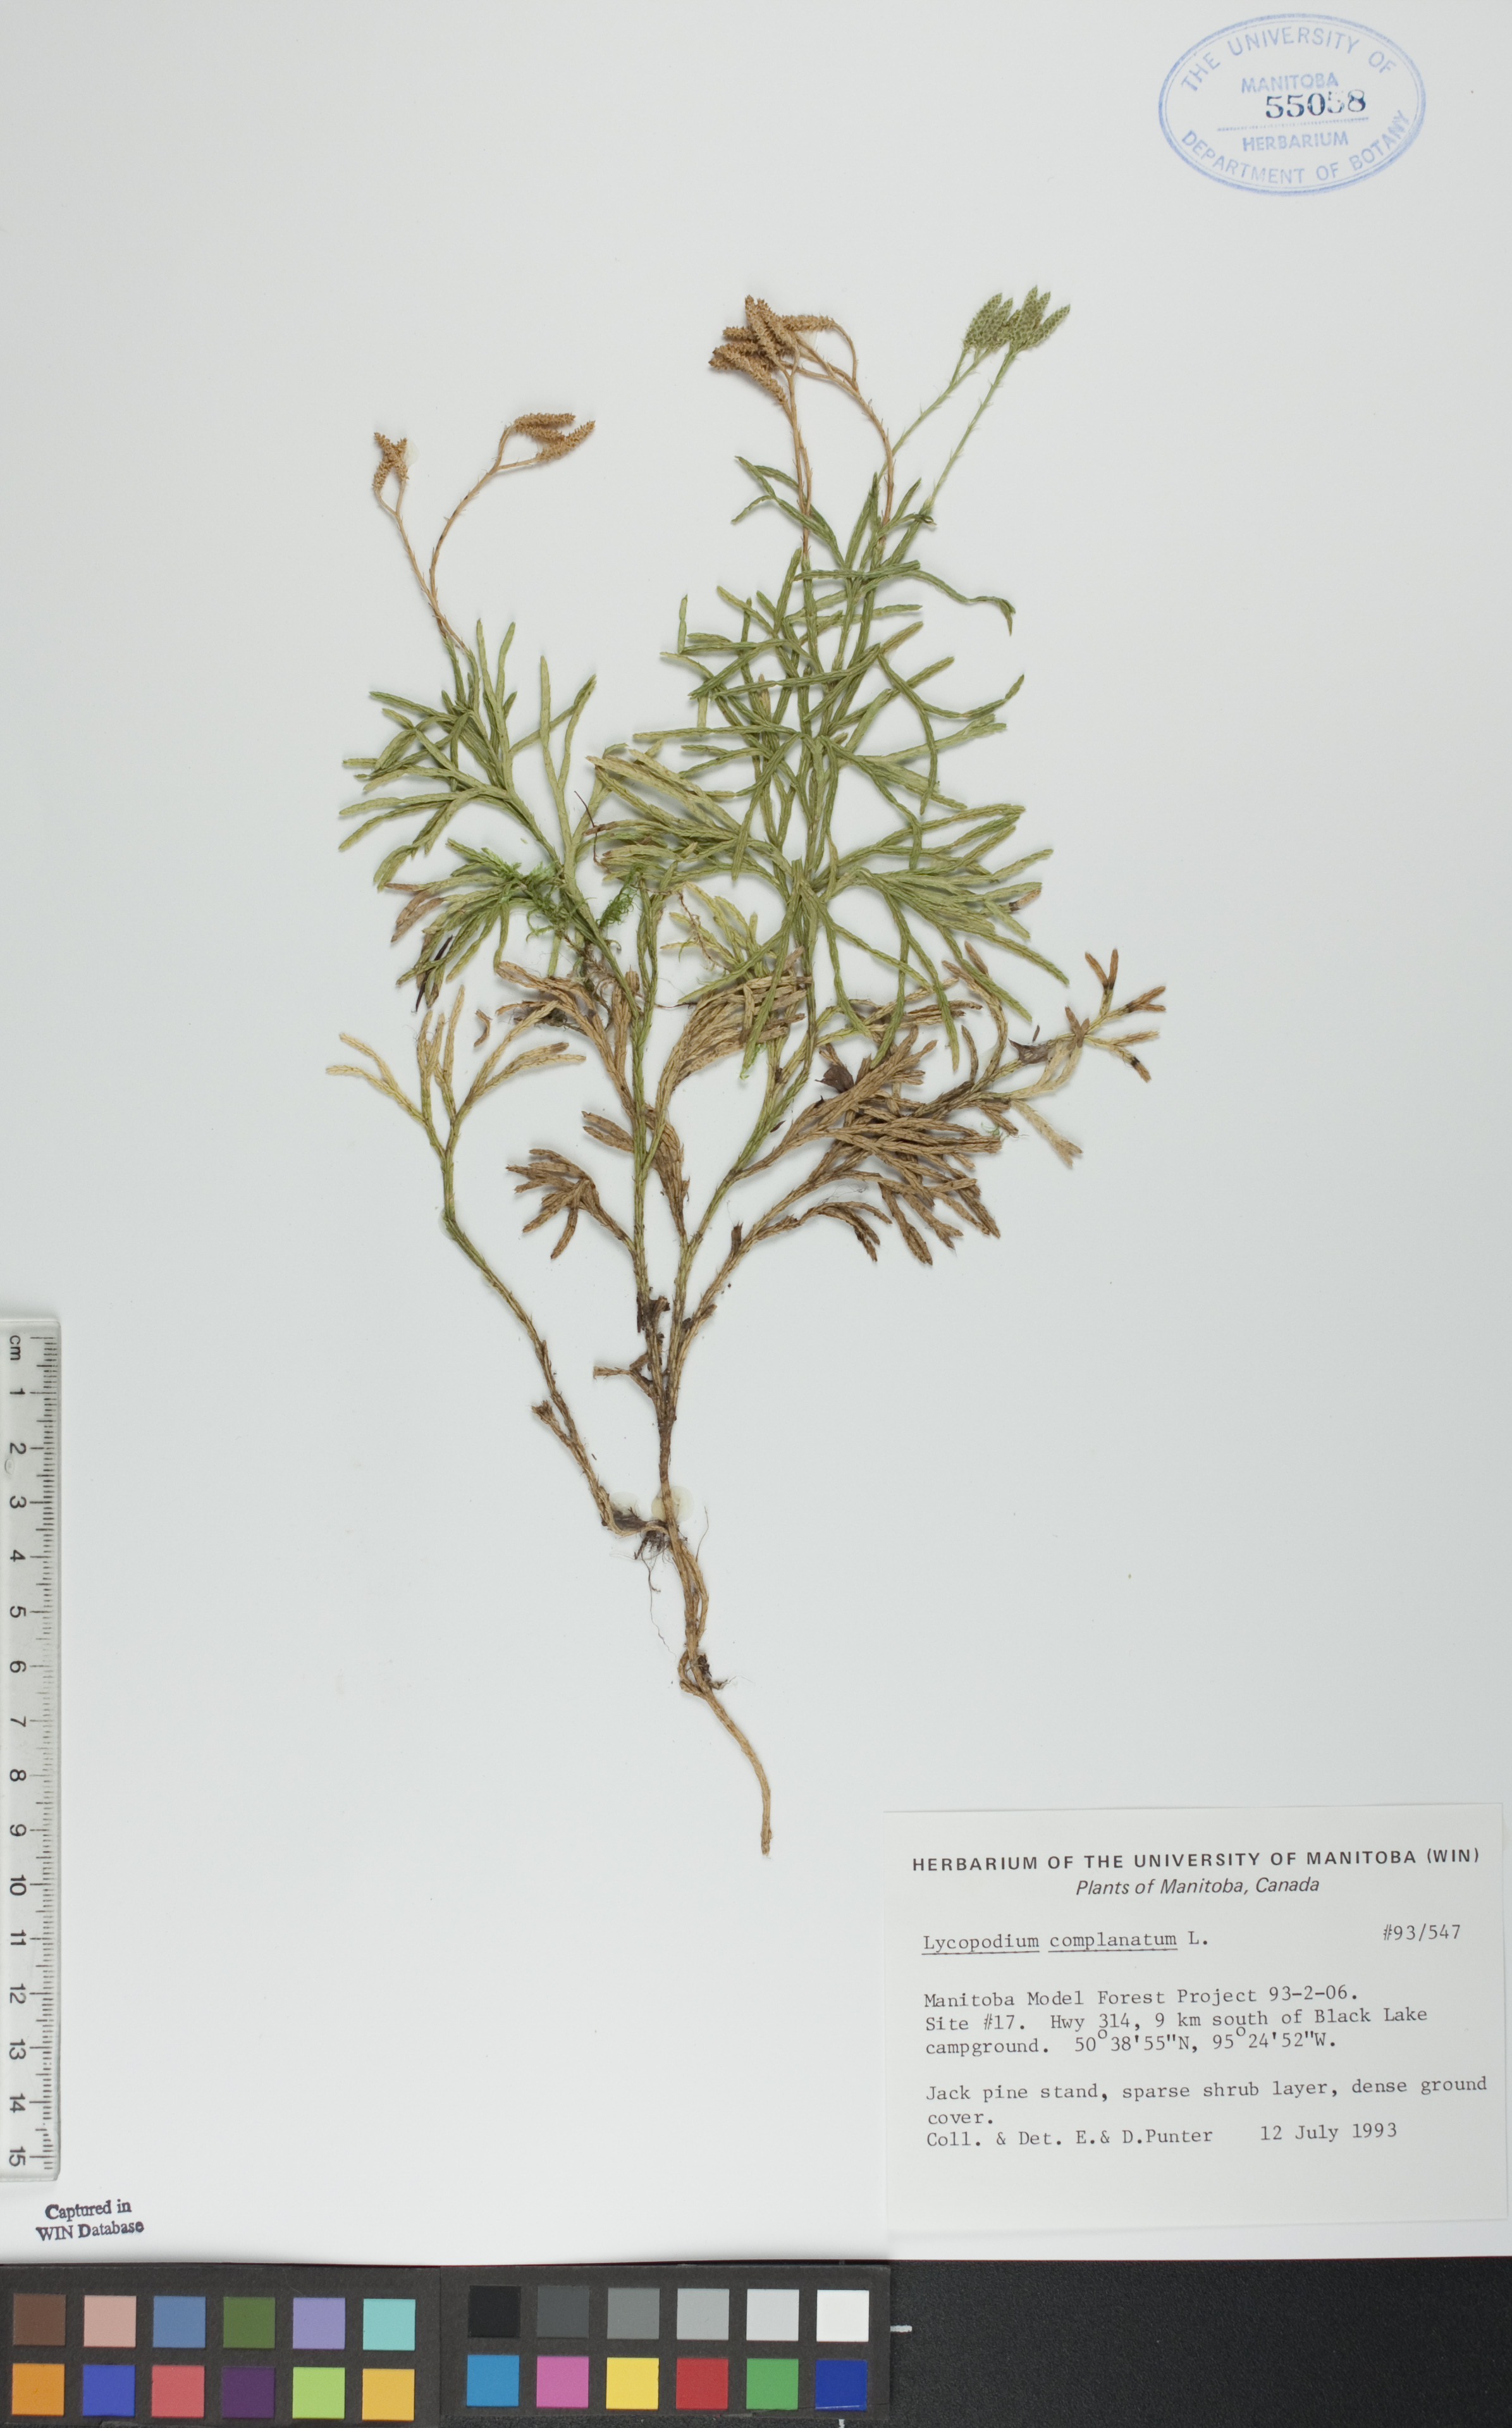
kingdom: Plantae
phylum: Tracheophyta
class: Lycopodiopsida
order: Lycopodiales
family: Lycopodiaceae
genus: Diphasiastrum
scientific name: Diphasiastrum complanatum
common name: Northern running-pine
